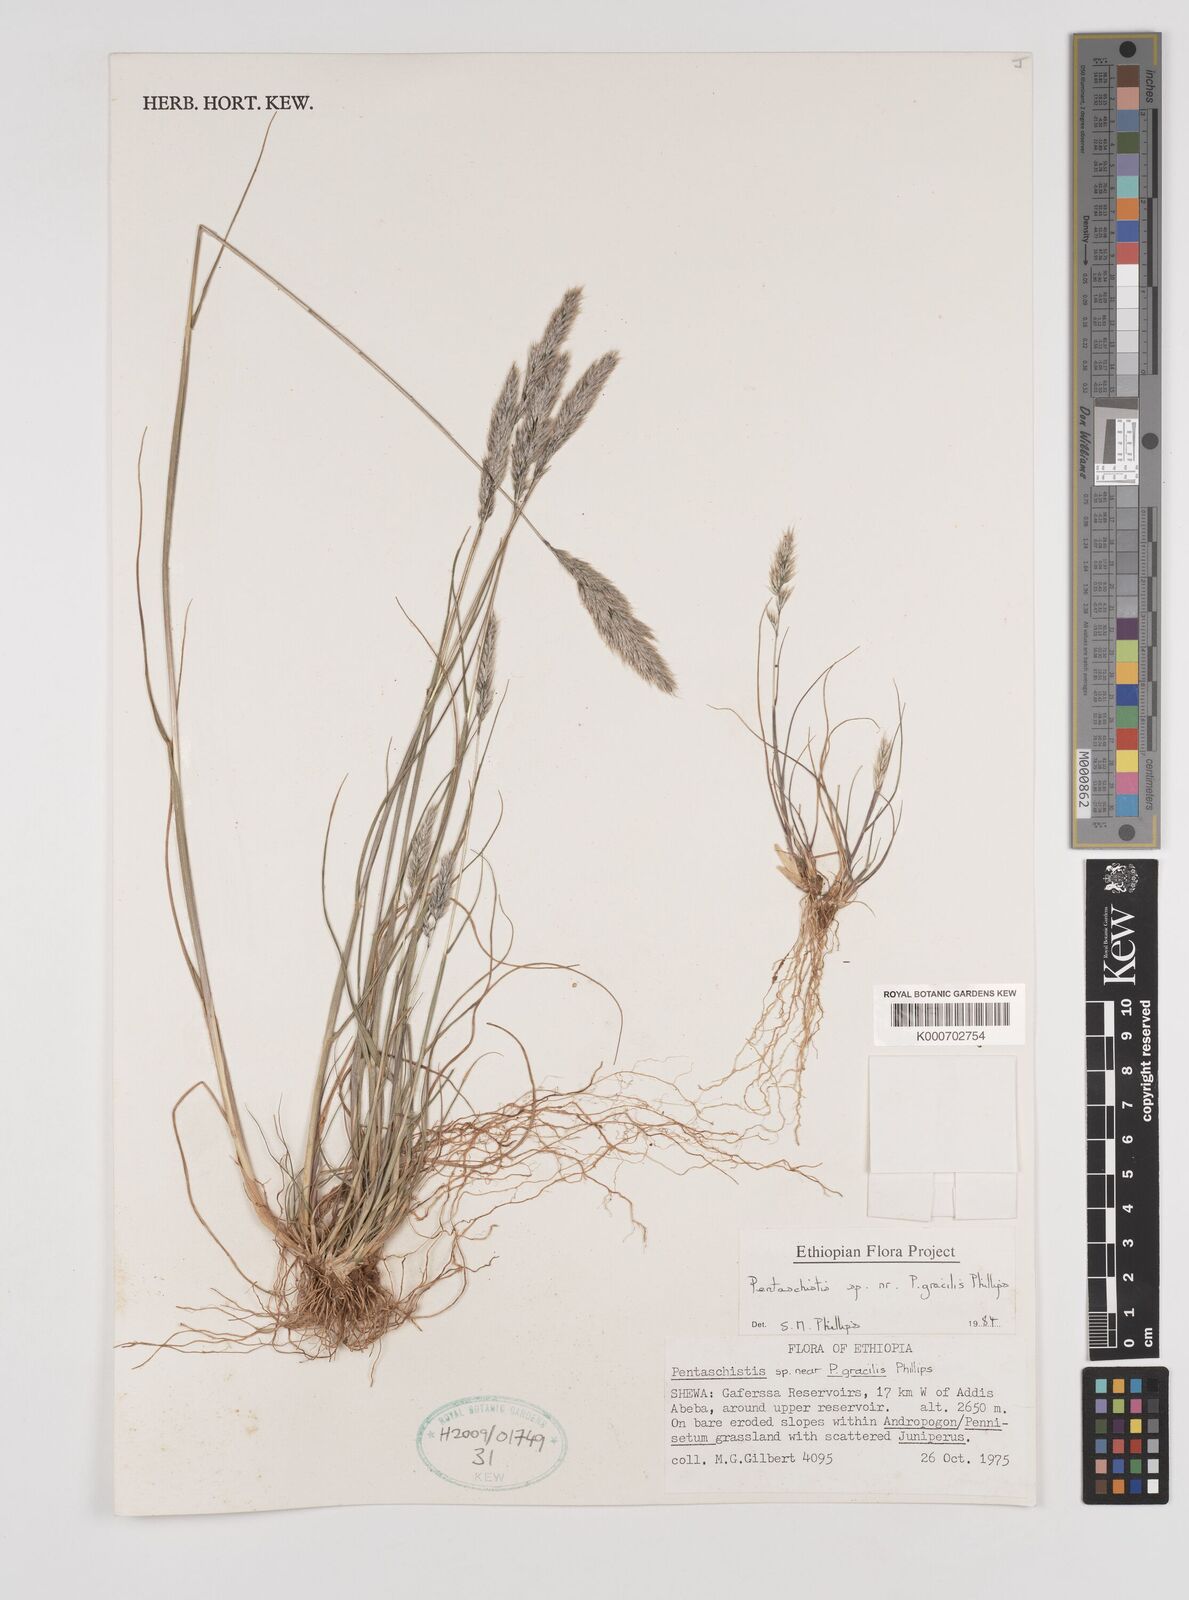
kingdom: Plantae
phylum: Tracheophyta
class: Liliopsida
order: Poales
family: Poaceae
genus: Pentameris
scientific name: Pentameris pictigluma
